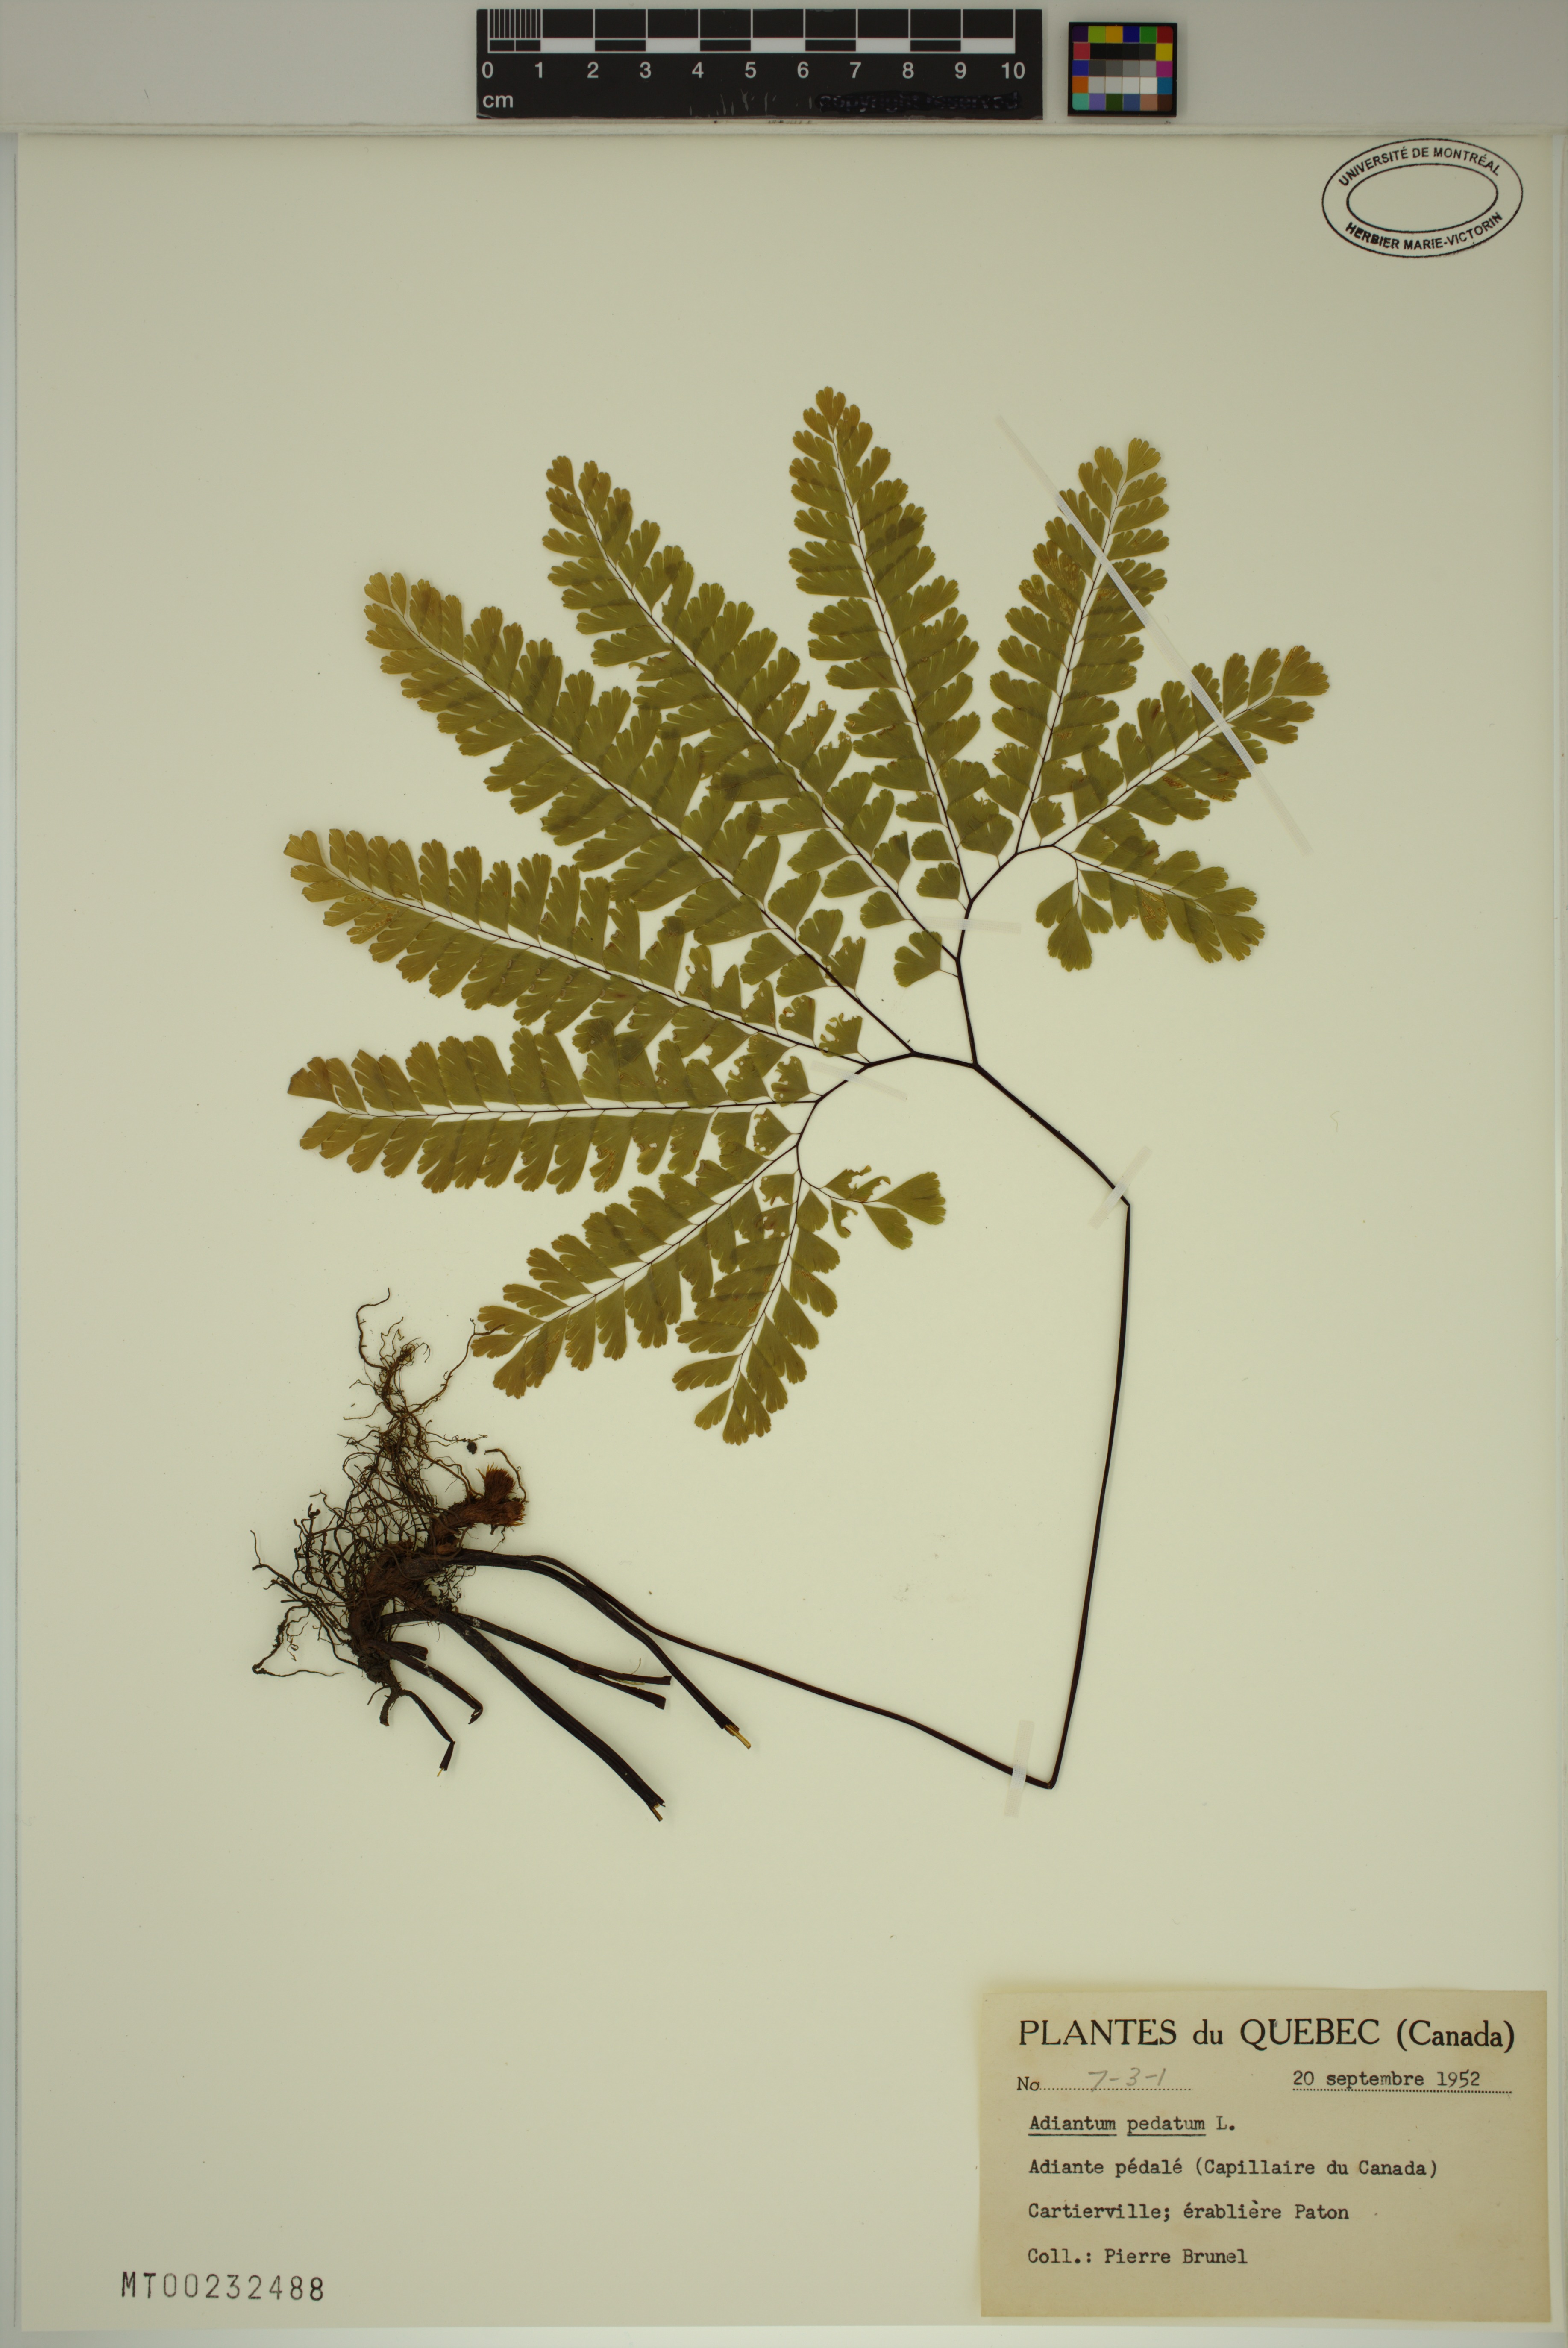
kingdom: Plantae
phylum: Tracheophyta
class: Polypodiopsida
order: Polypodiales
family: Pteridaceae
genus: Adiantum
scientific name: Adiantum pedatum
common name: Five-finger fern
